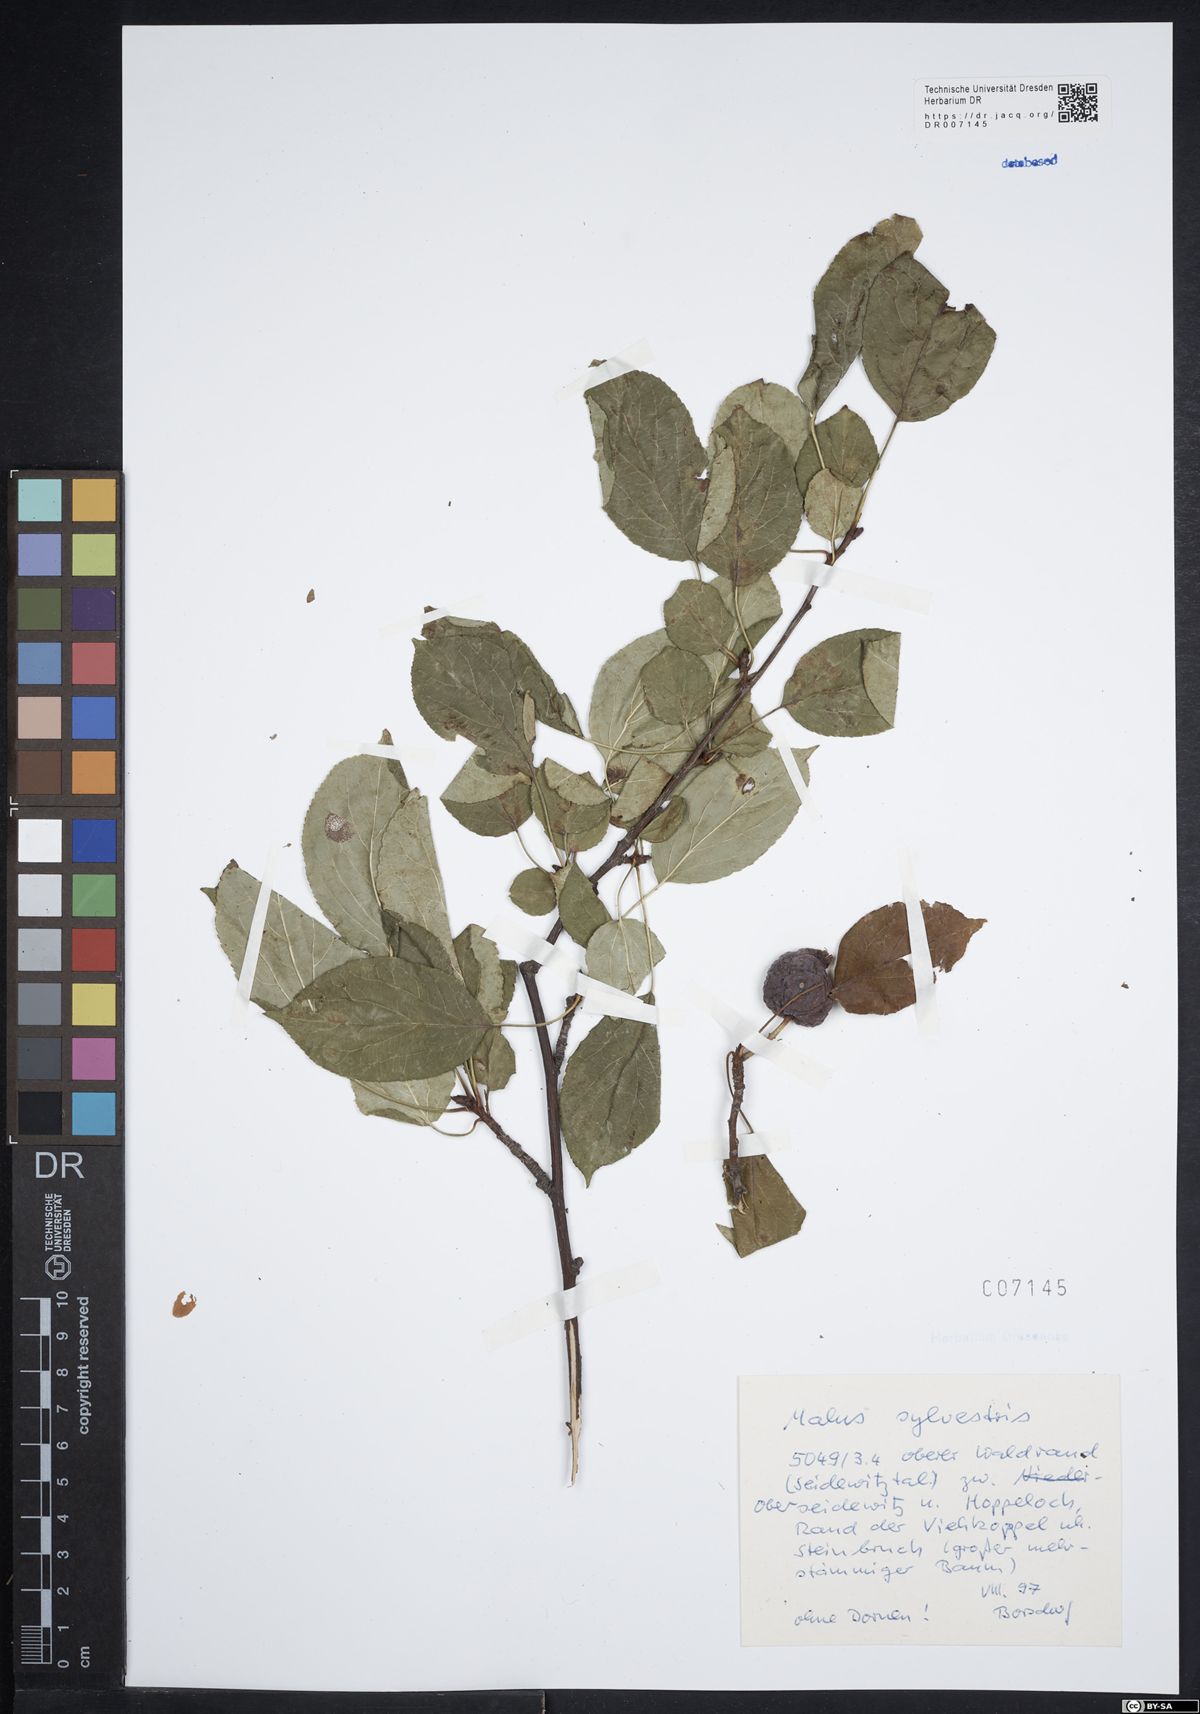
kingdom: Plantae
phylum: Tracheophyta
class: Magnoliopsida
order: Rosales
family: Rosaceae
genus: Malus
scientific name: Malus sylvestris
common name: Crab apple
